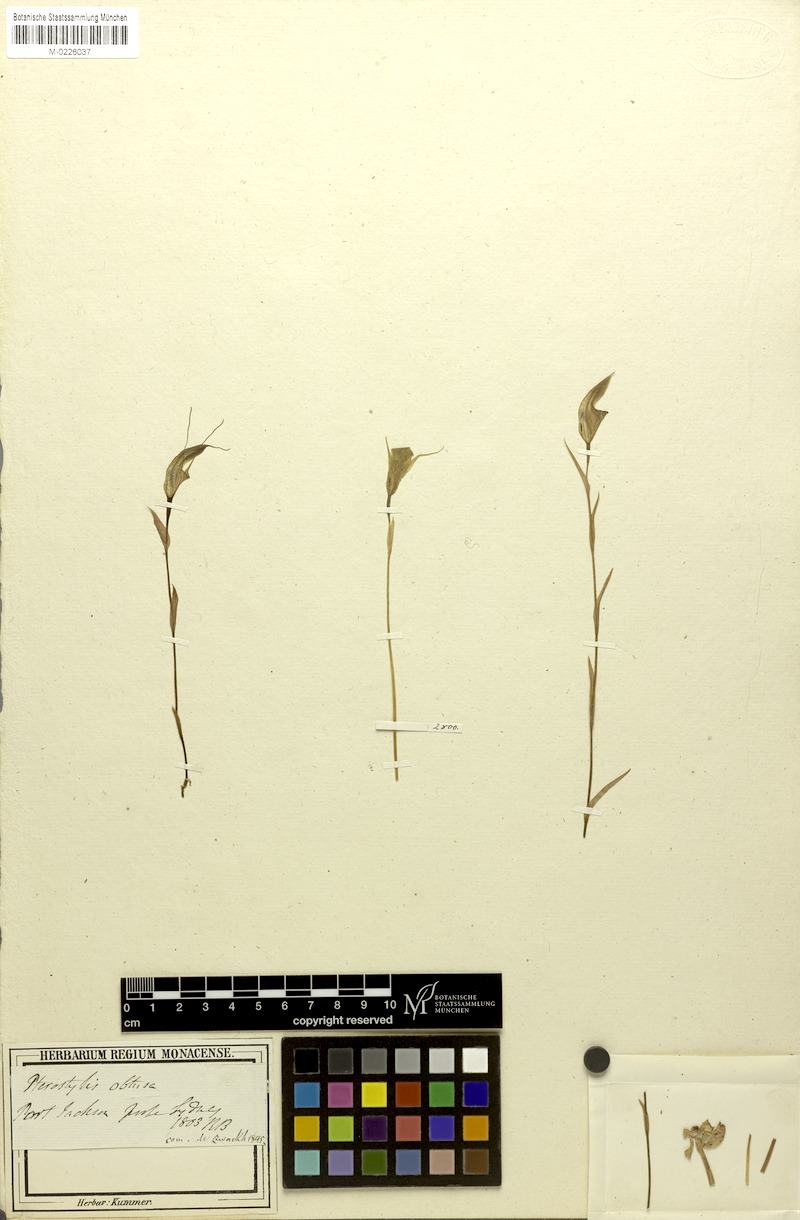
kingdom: Plantae
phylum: Tracheophyta
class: Liliopsida
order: Asparagales
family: Orchidaceae
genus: Pterostylis
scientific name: Pterostylis obtusa
